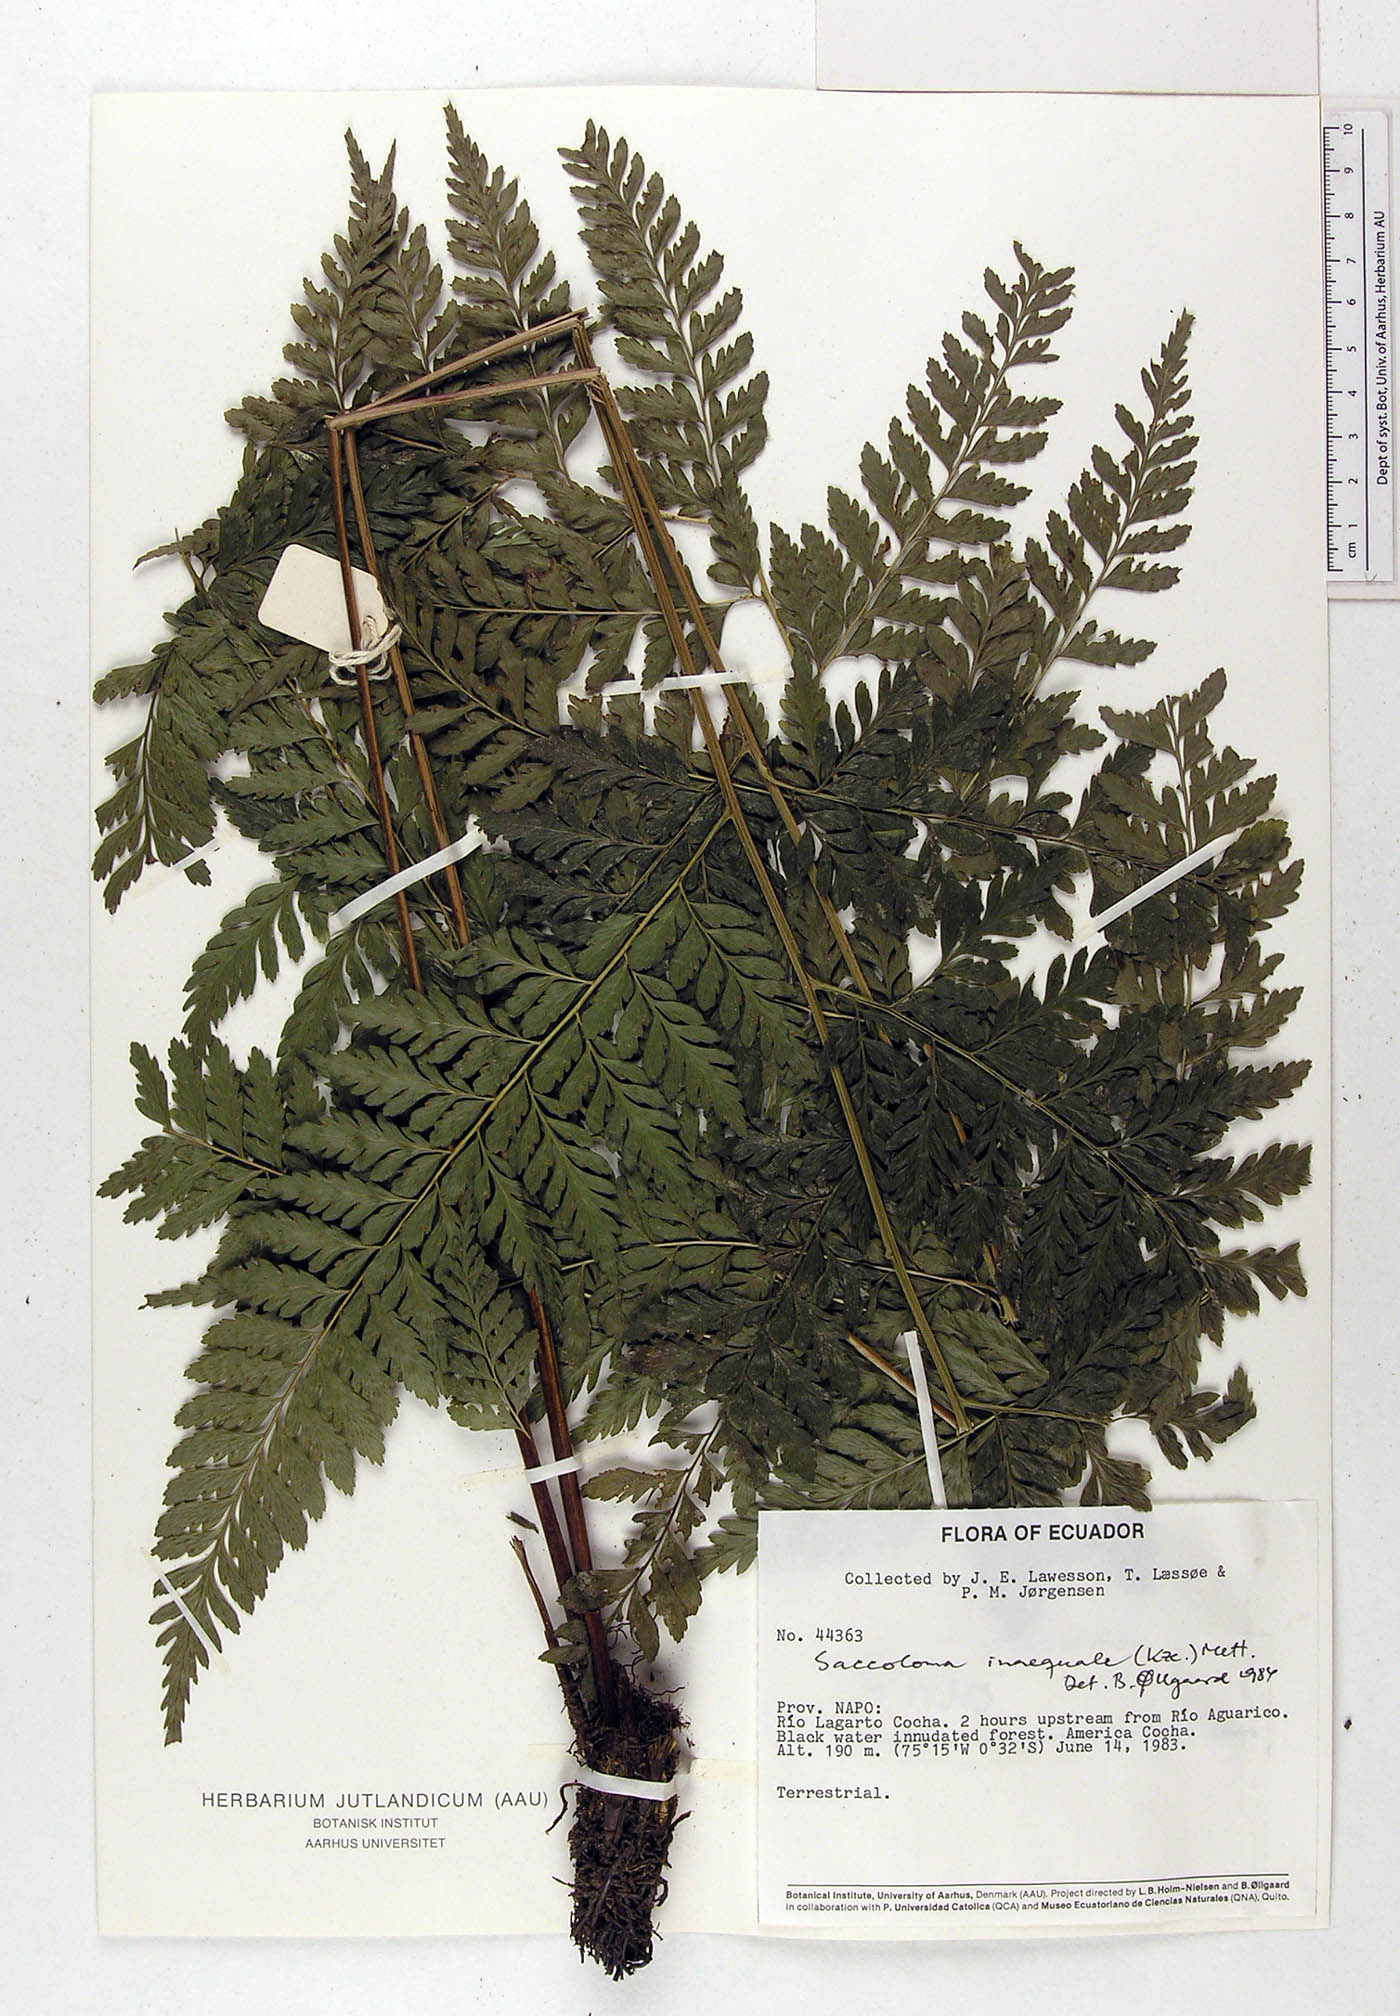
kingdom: Plantae
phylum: Tracheophyta
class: Polypodiopsida
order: Polypodiales
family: Saccolomataceae
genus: Saccoloma
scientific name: Saccoloma inaequale
